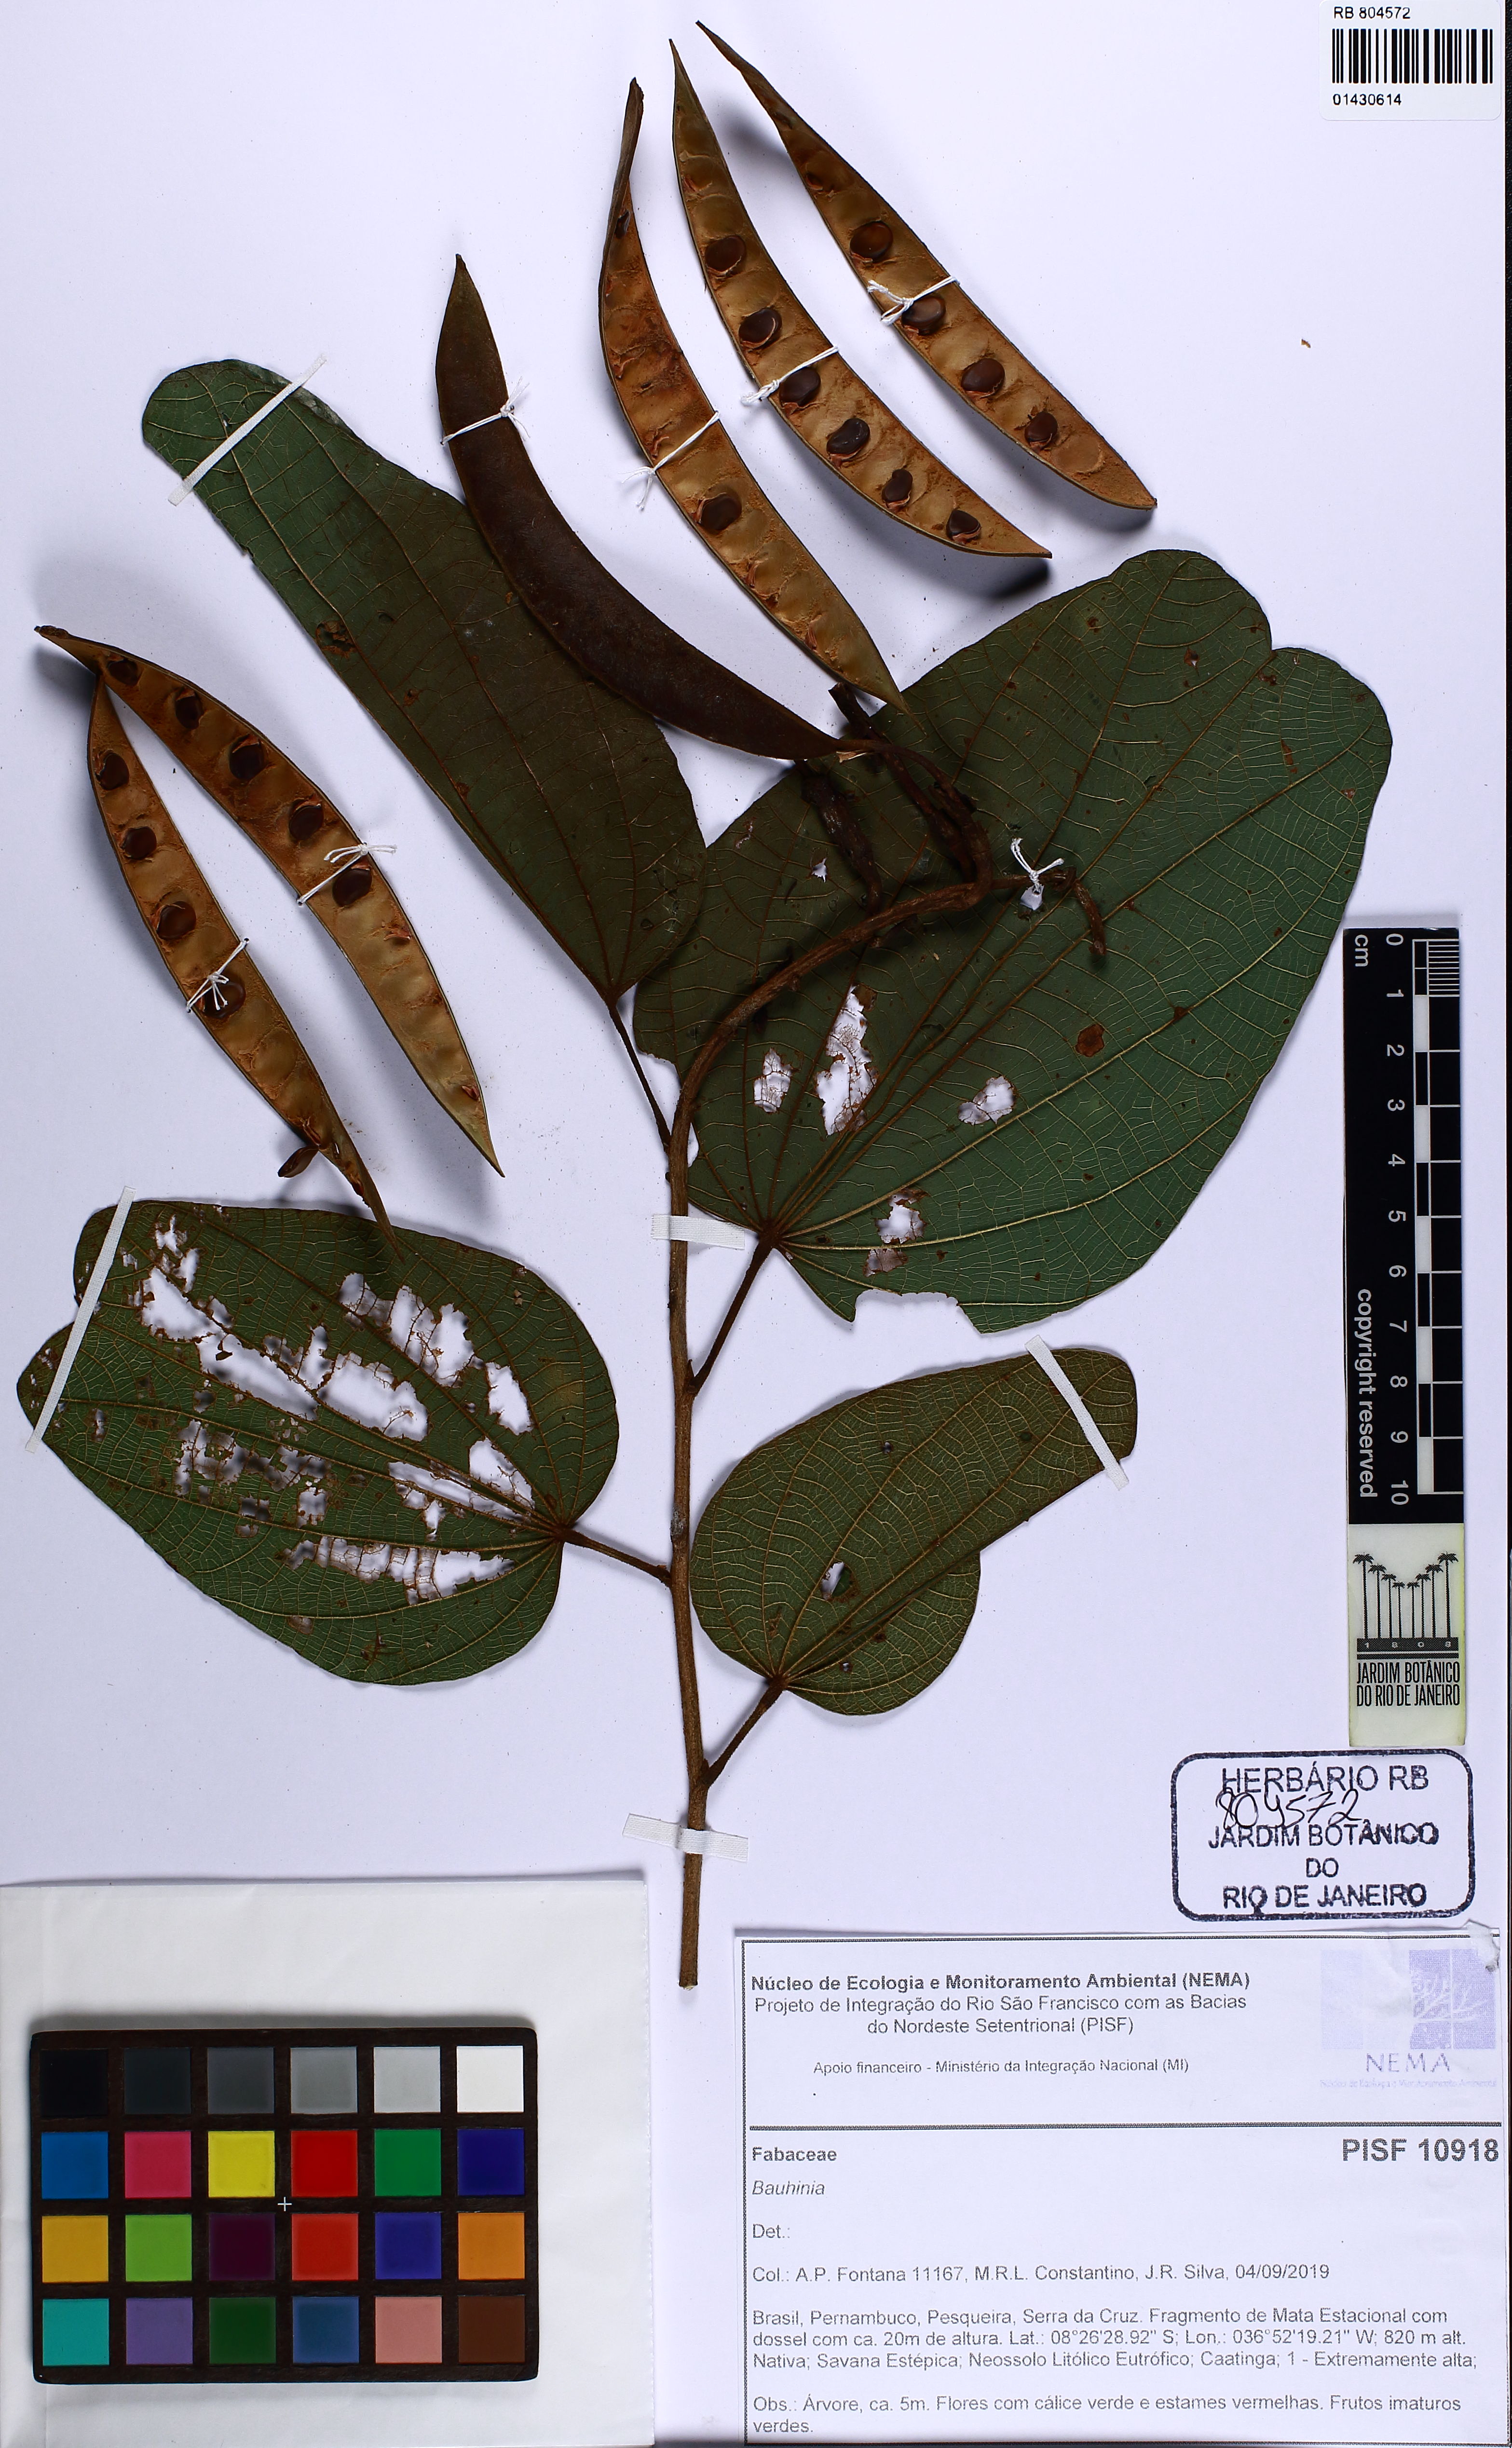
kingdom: Plantae
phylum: Tracheophyta
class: Magnoliopsida
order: Fabales
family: Fabaceae
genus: Bauhinia
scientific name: Bauhinia
